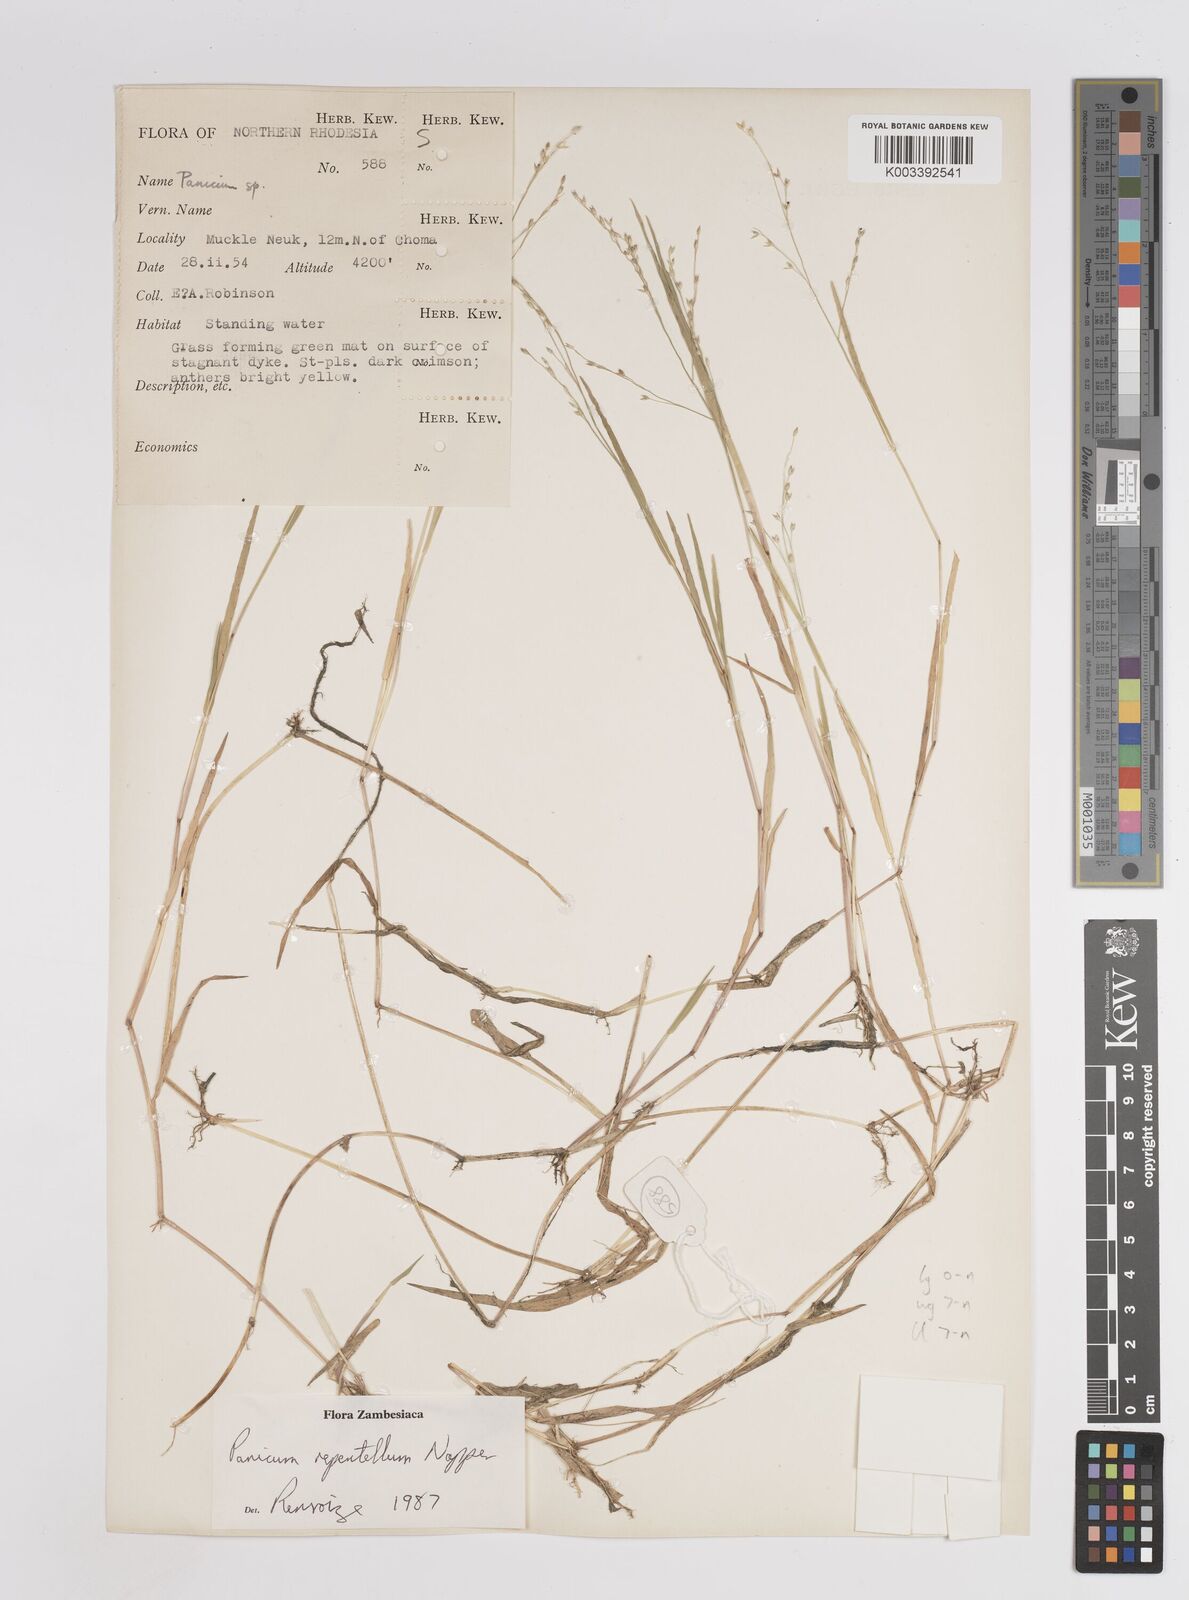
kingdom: Plantae
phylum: Tracheophyta
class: Liliopsida
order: Poales
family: Poaceae
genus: Panicum
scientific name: Panicum hygrocharis
